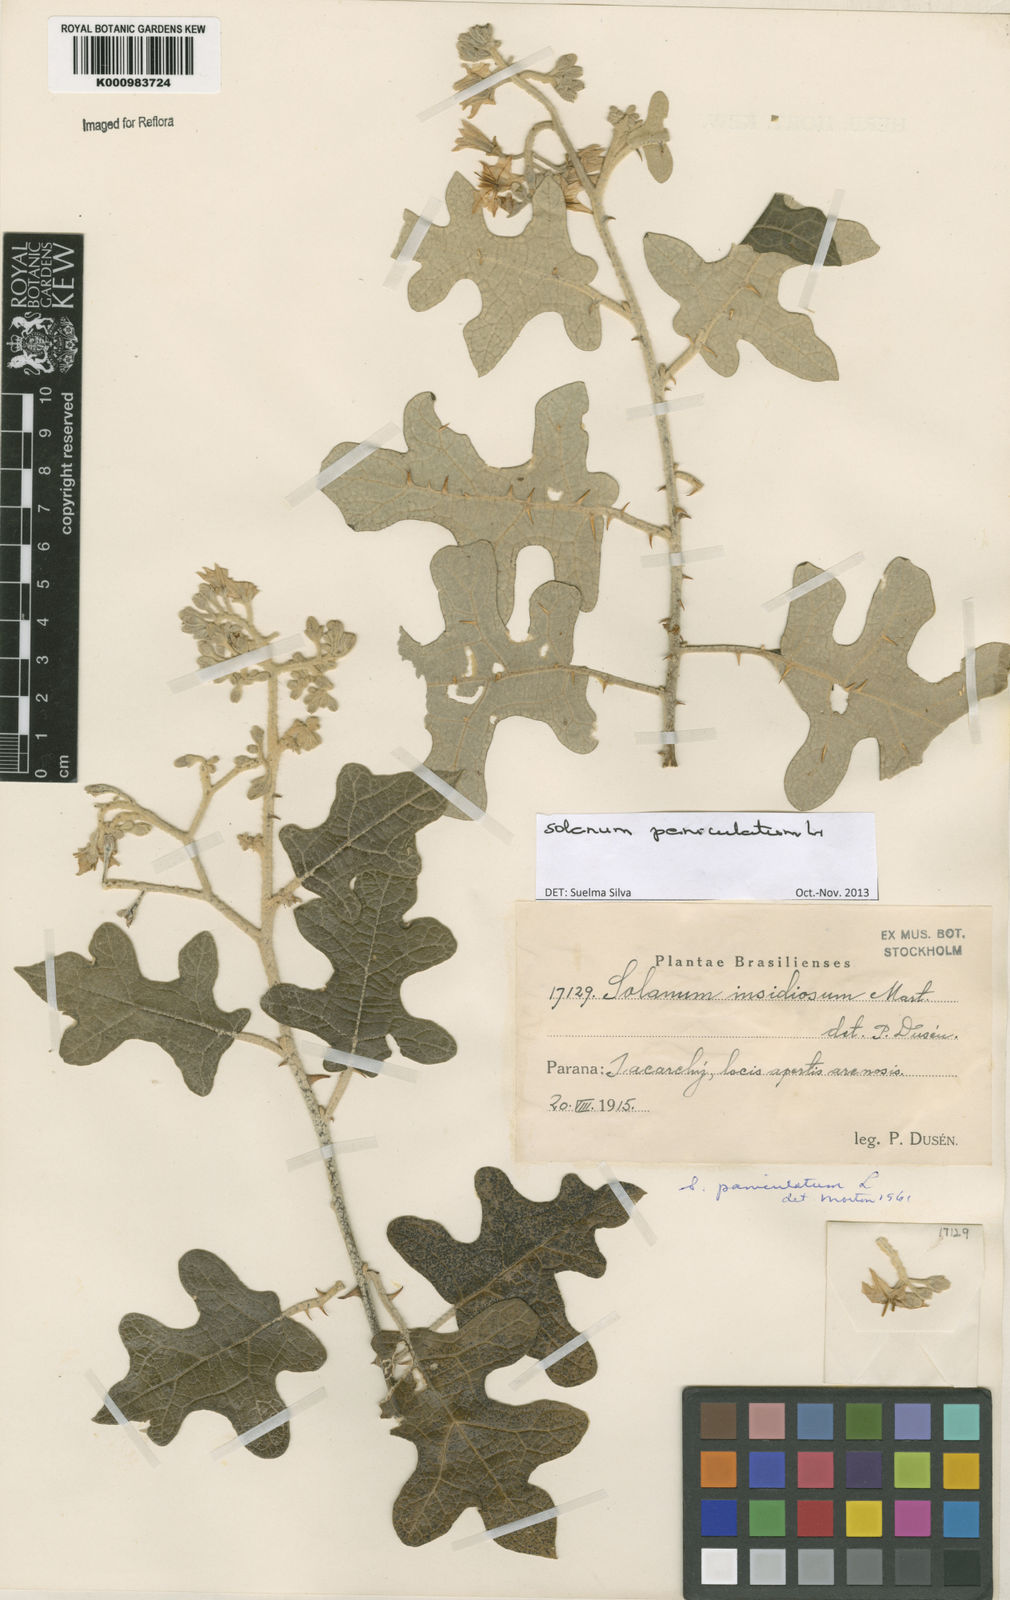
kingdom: Plantae
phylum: Tracheophyta
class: Magnoliopsida
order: Solanales
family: Solanaceae
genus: Solanum
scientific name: Solanum paniculatum
